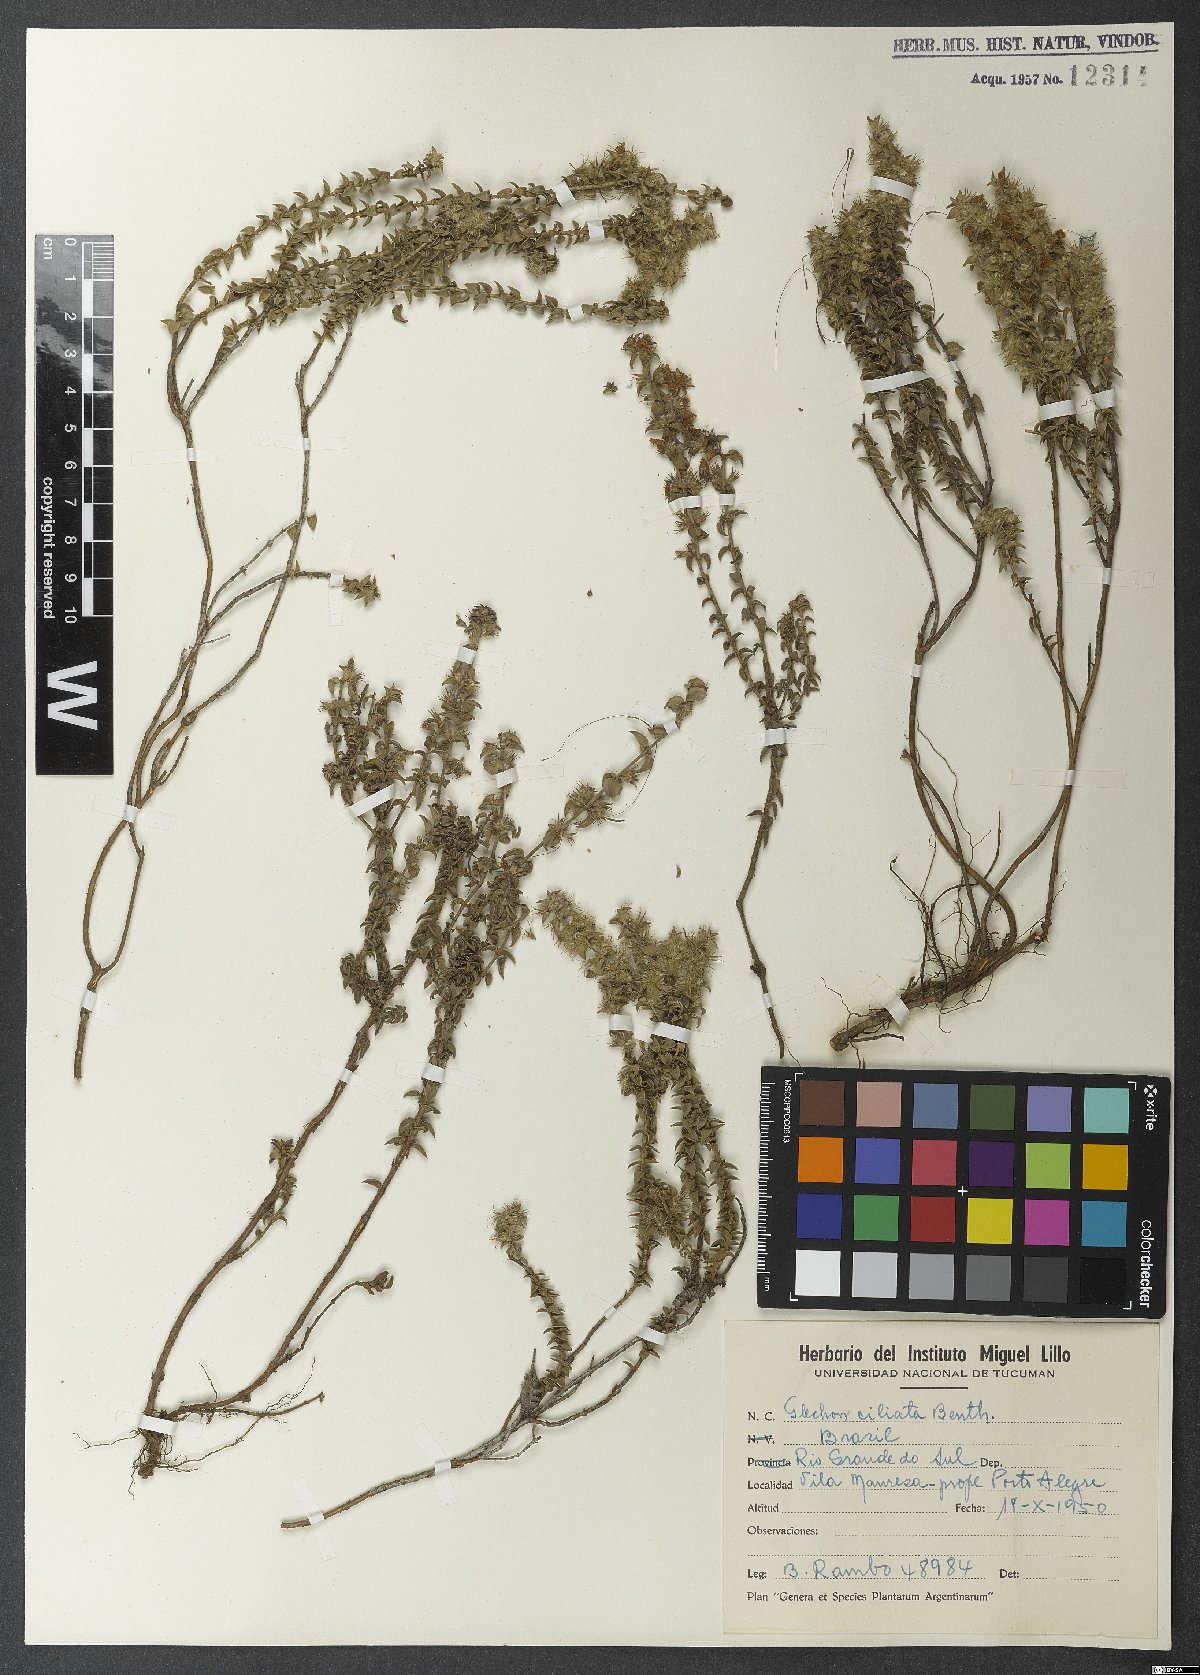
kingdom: Plantae
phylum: Tracheophyta
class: Magnoliopsida
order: Lamiales
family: Lamiaceae
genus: Glechon
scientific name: Glechon ciliata
